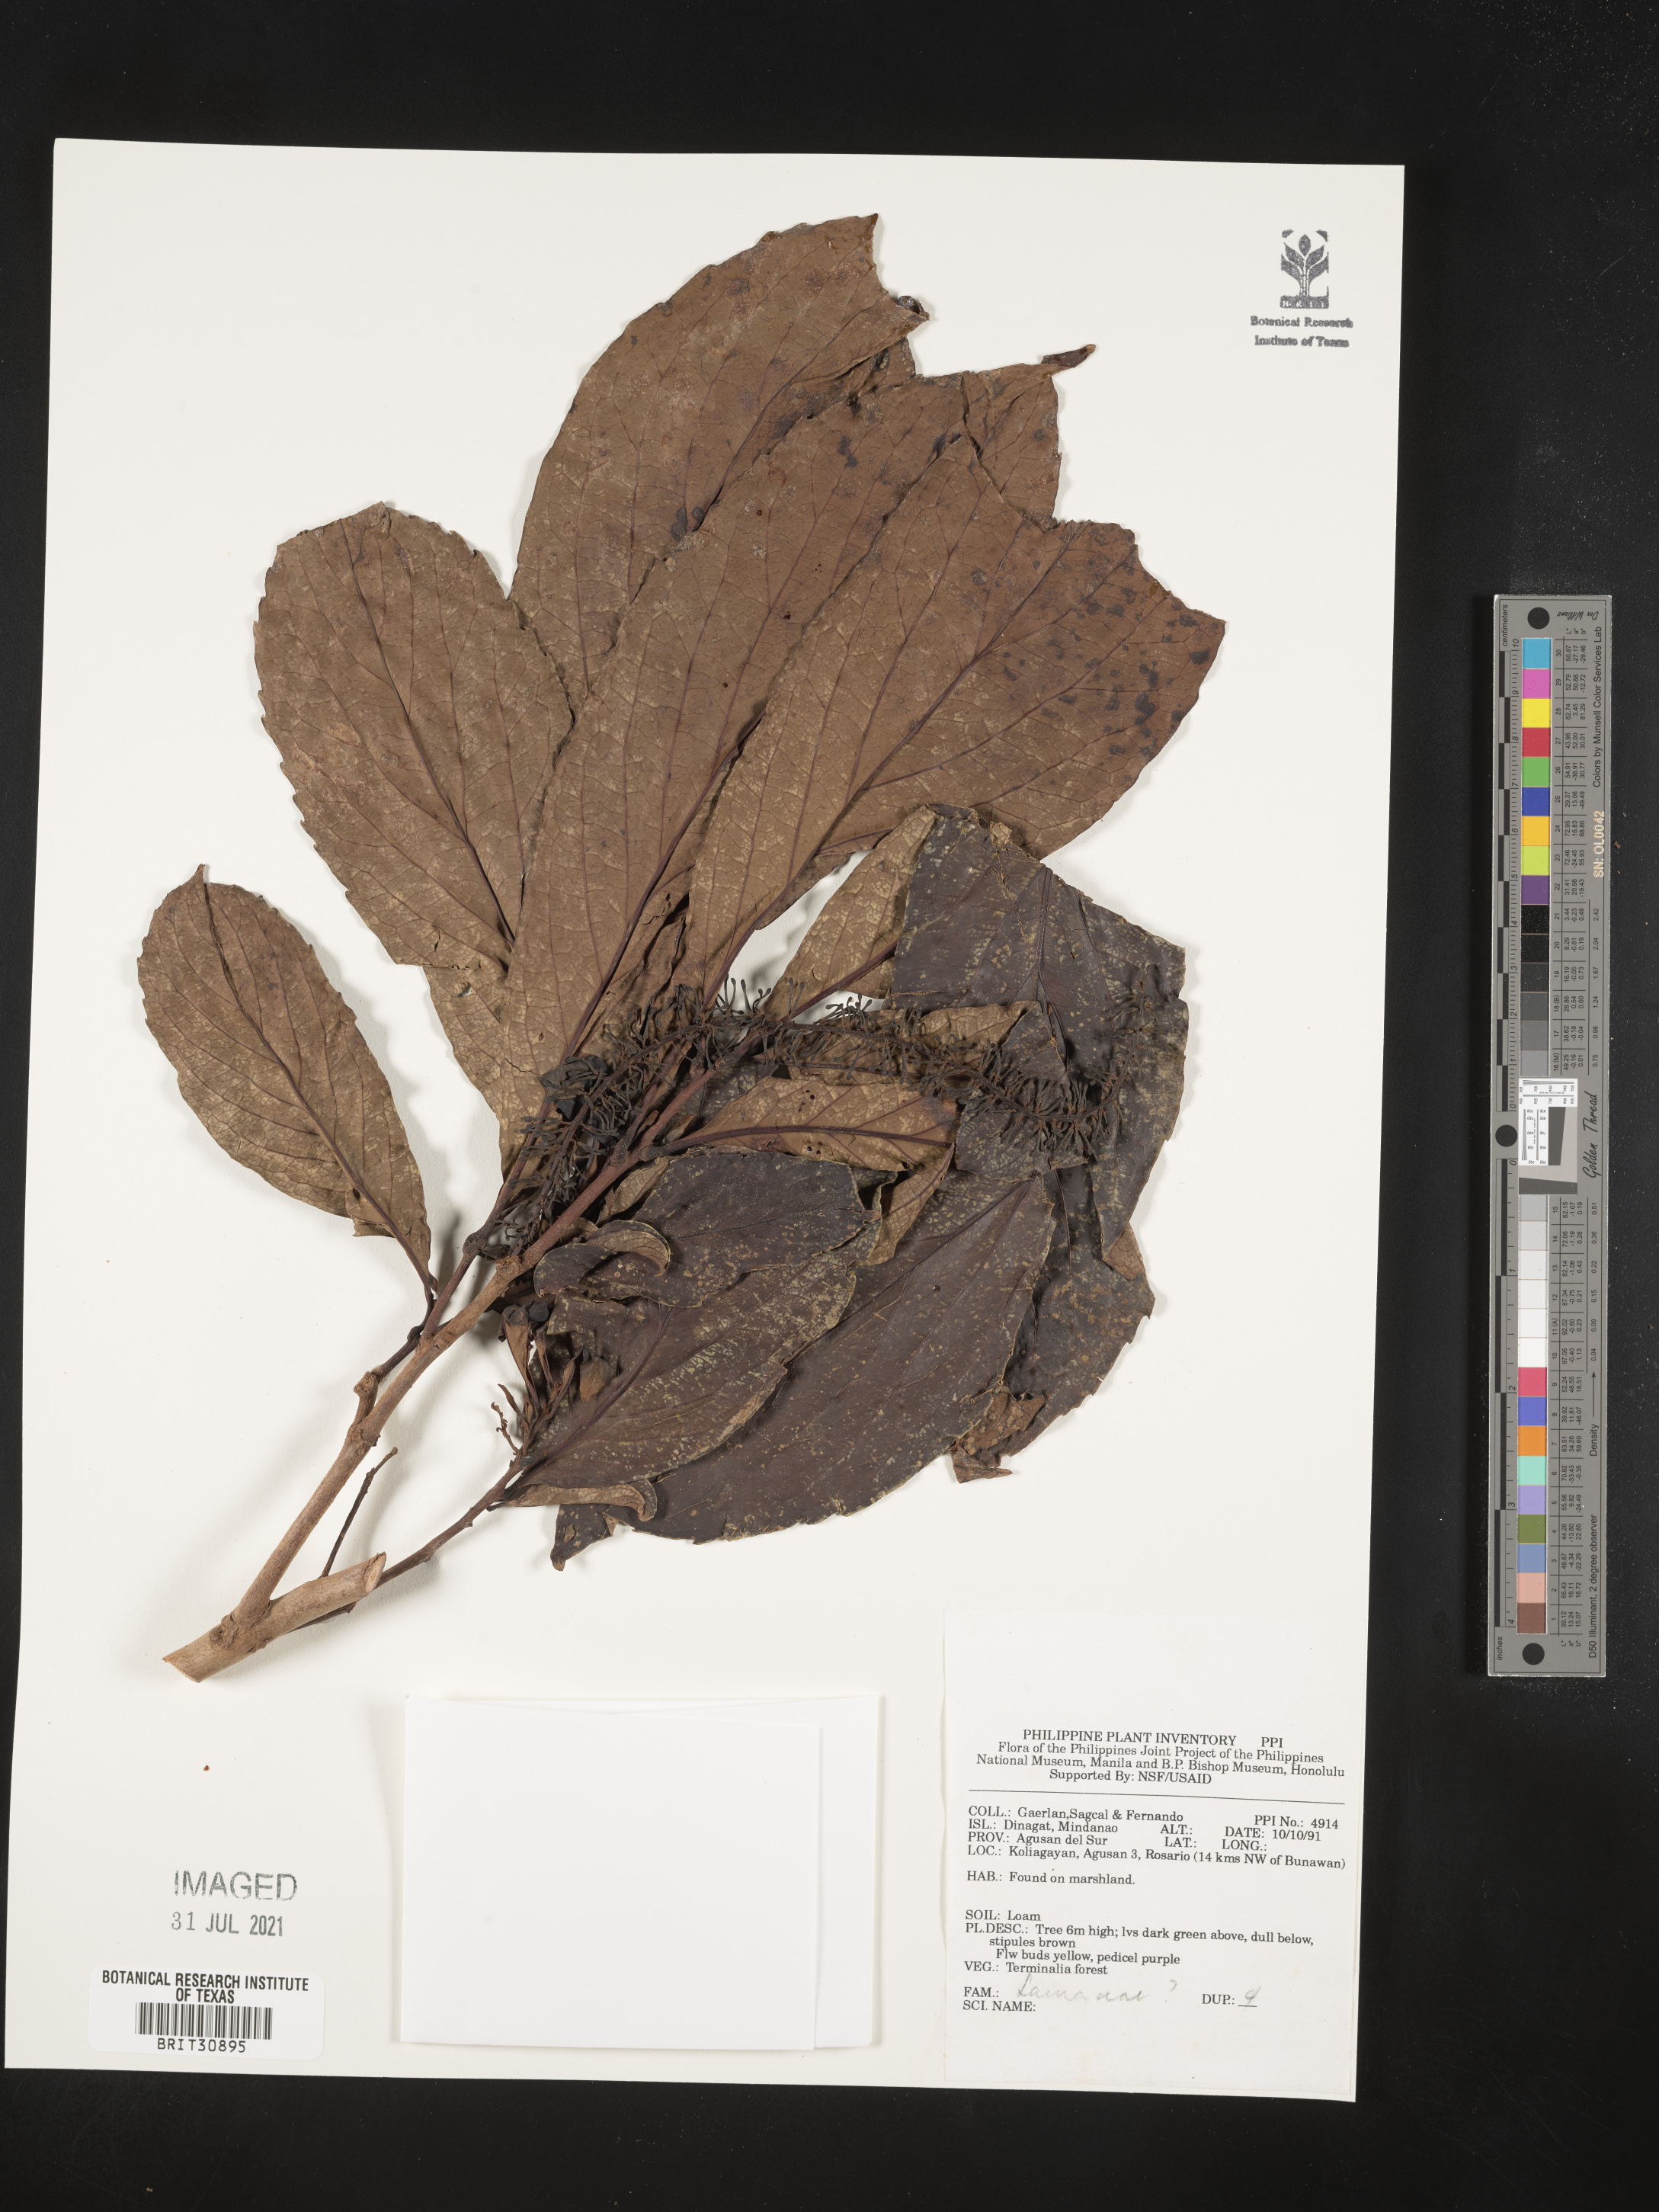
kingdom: Plantae
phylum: Tracheophyta
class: Magnoliopsida
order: Laurales
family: Lauraceae
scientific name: Lauraceae
